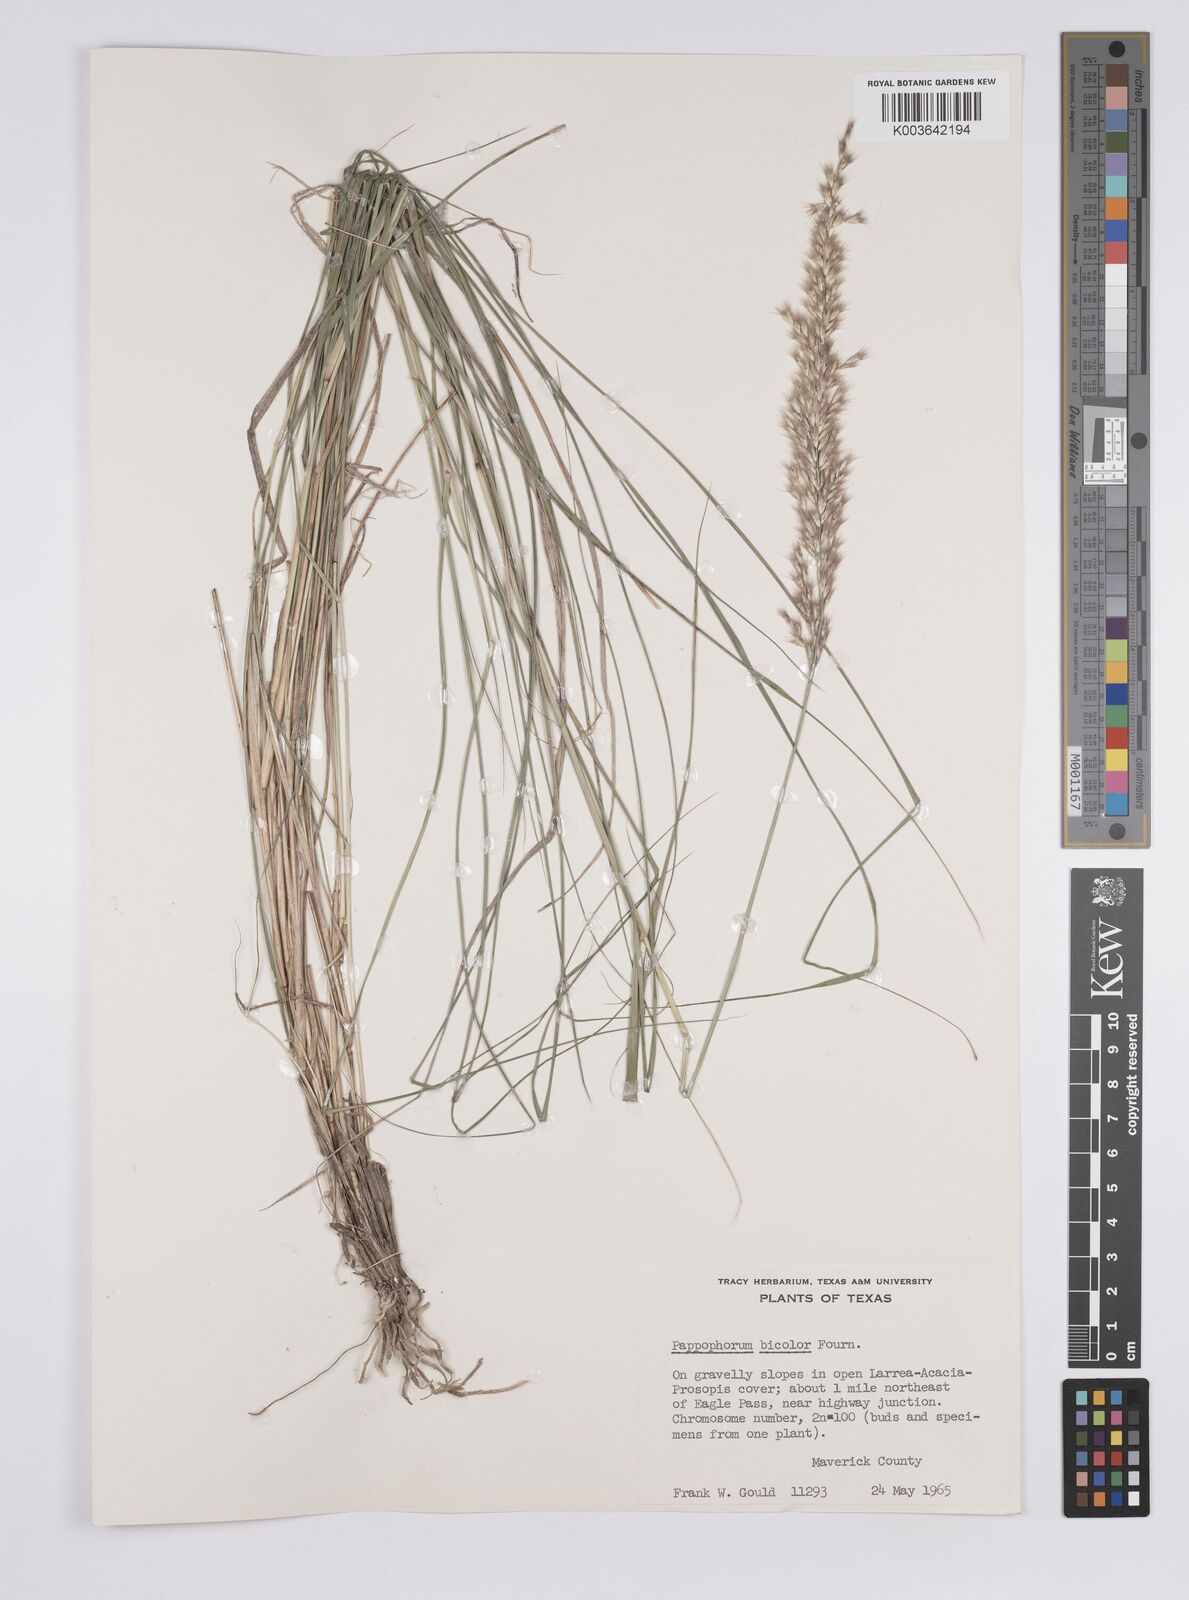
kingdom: Plantae
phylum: Tracheophyta
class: Liliopsida
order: Poales
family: Poaceae
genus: Pappophorum
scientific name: Pappophorum bicolor
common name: Pink pappus grass
